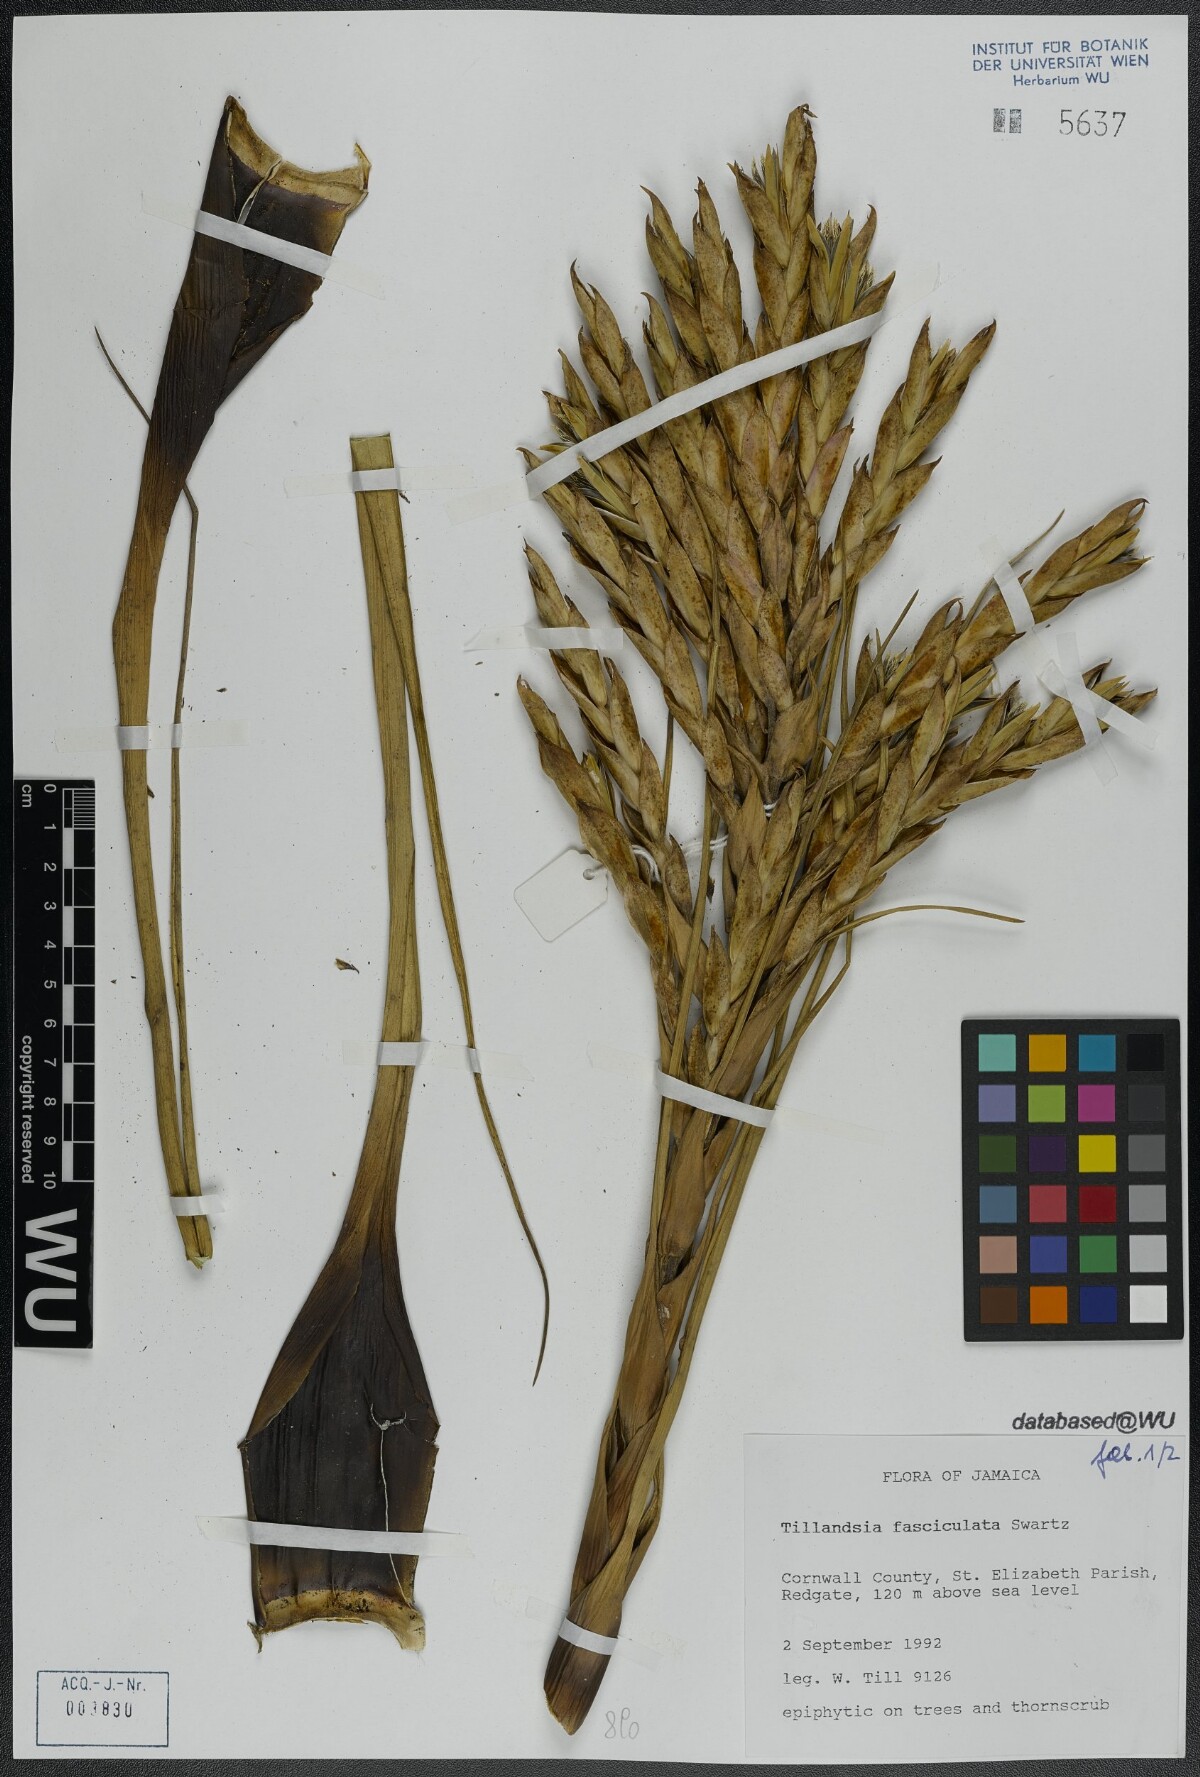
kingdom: Plantae
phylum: Tracheophyta
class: Liliopsida
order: Poales
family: Bromeliaceae
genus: Tillandsia
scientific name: Tillandsia fasciculata
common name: Giant airplant
